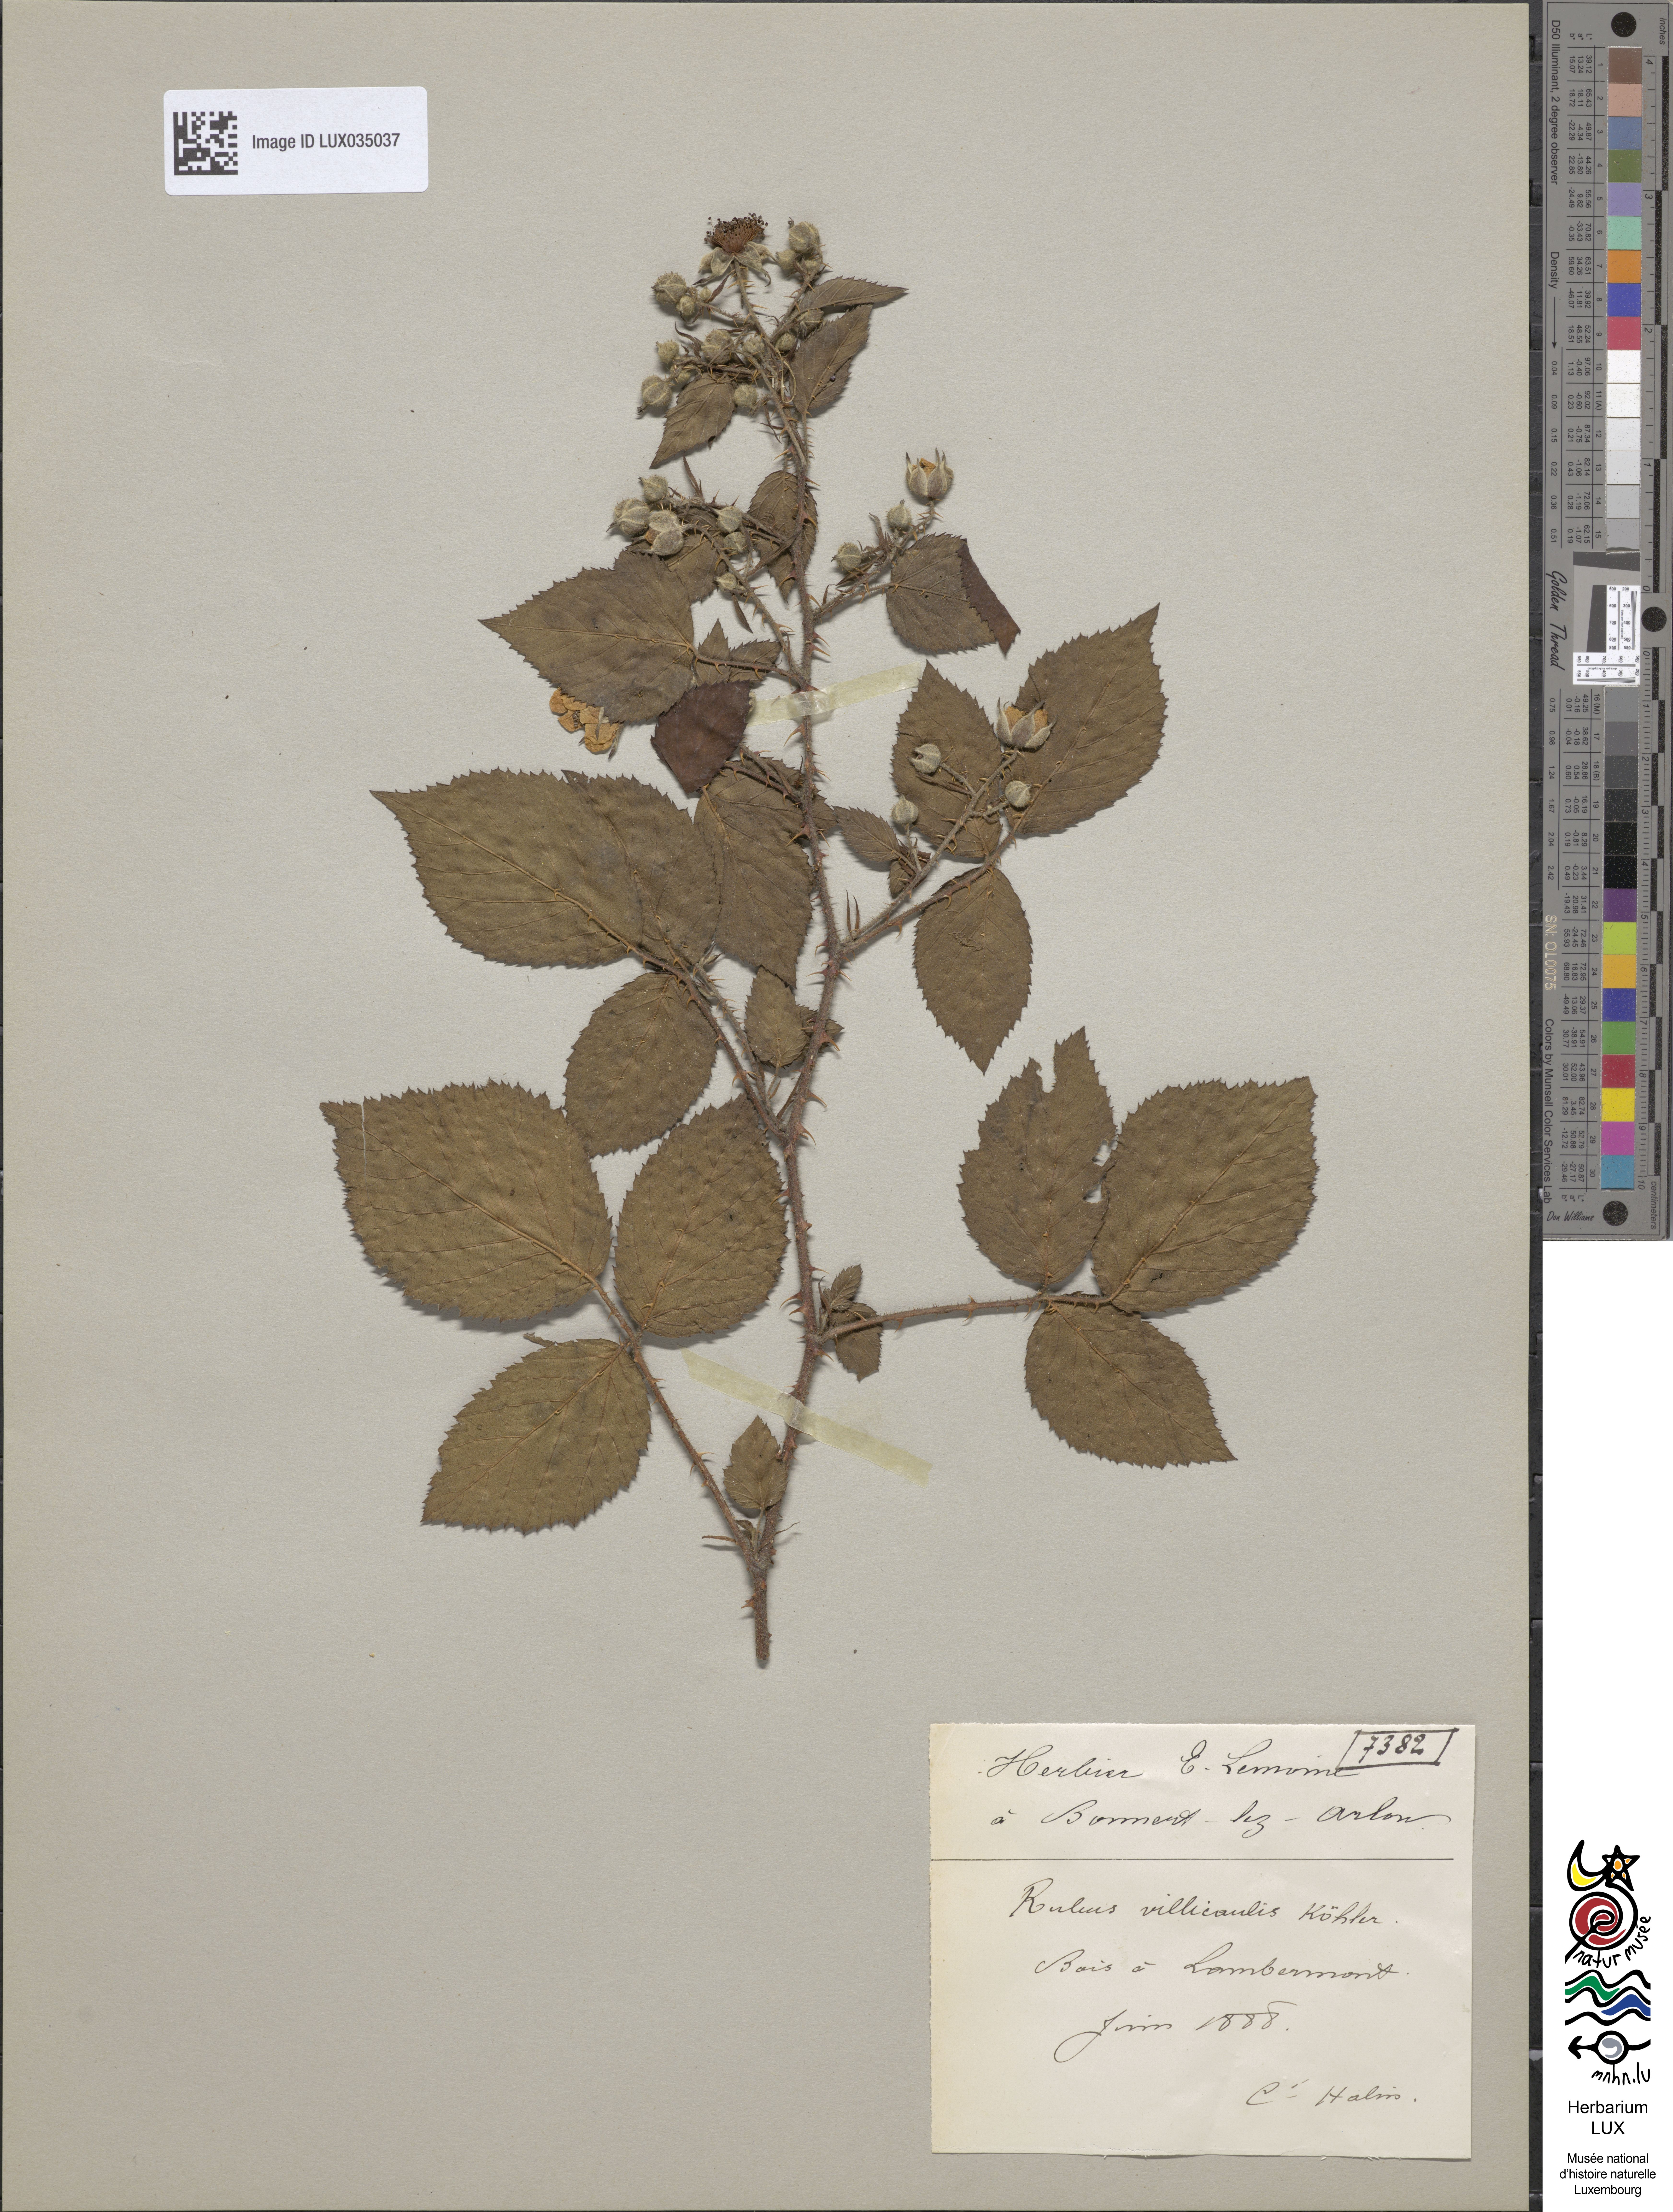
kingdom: Plantae
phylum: Tracheophyta
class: Magnoliopsida
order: Rosales
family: Rosaceae
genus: Rubus
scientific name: Rubus gracilis
